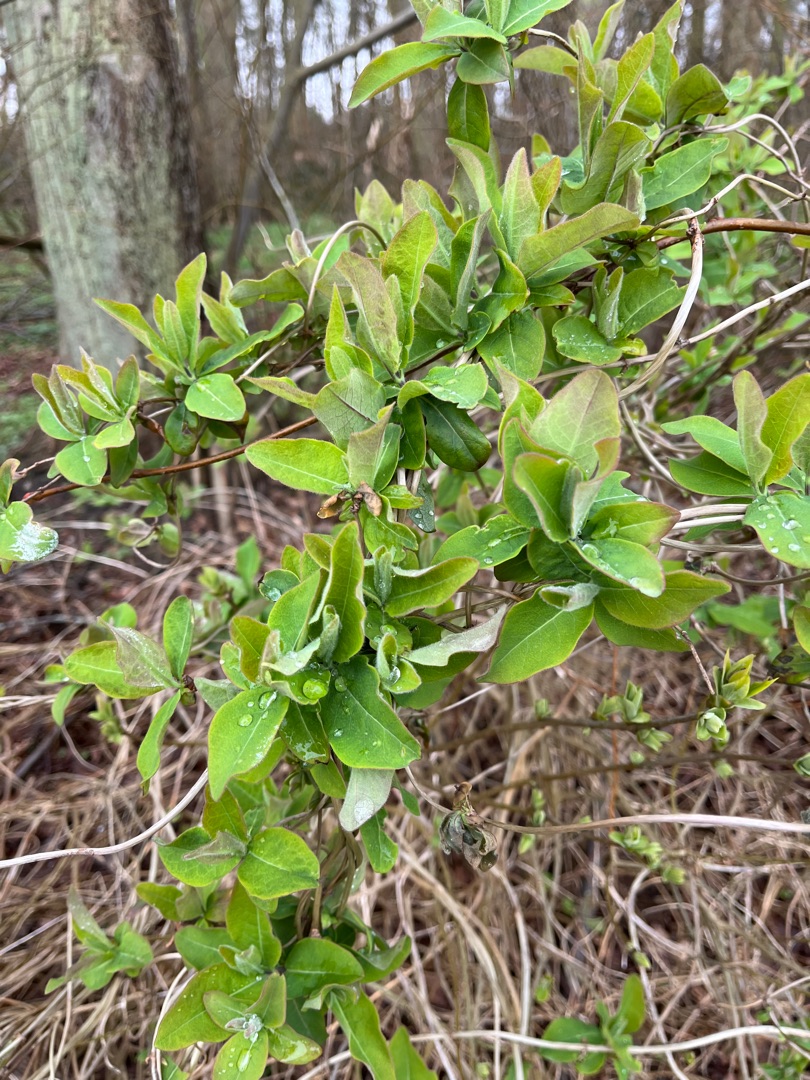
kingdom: Plantae
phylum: Tracheophyta
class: Magnoliopsida
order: Dipsacales
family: Caprifoliaceae
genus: Lonicera
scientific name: Lonicera periclymenum
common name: Almindelig gedeblad
